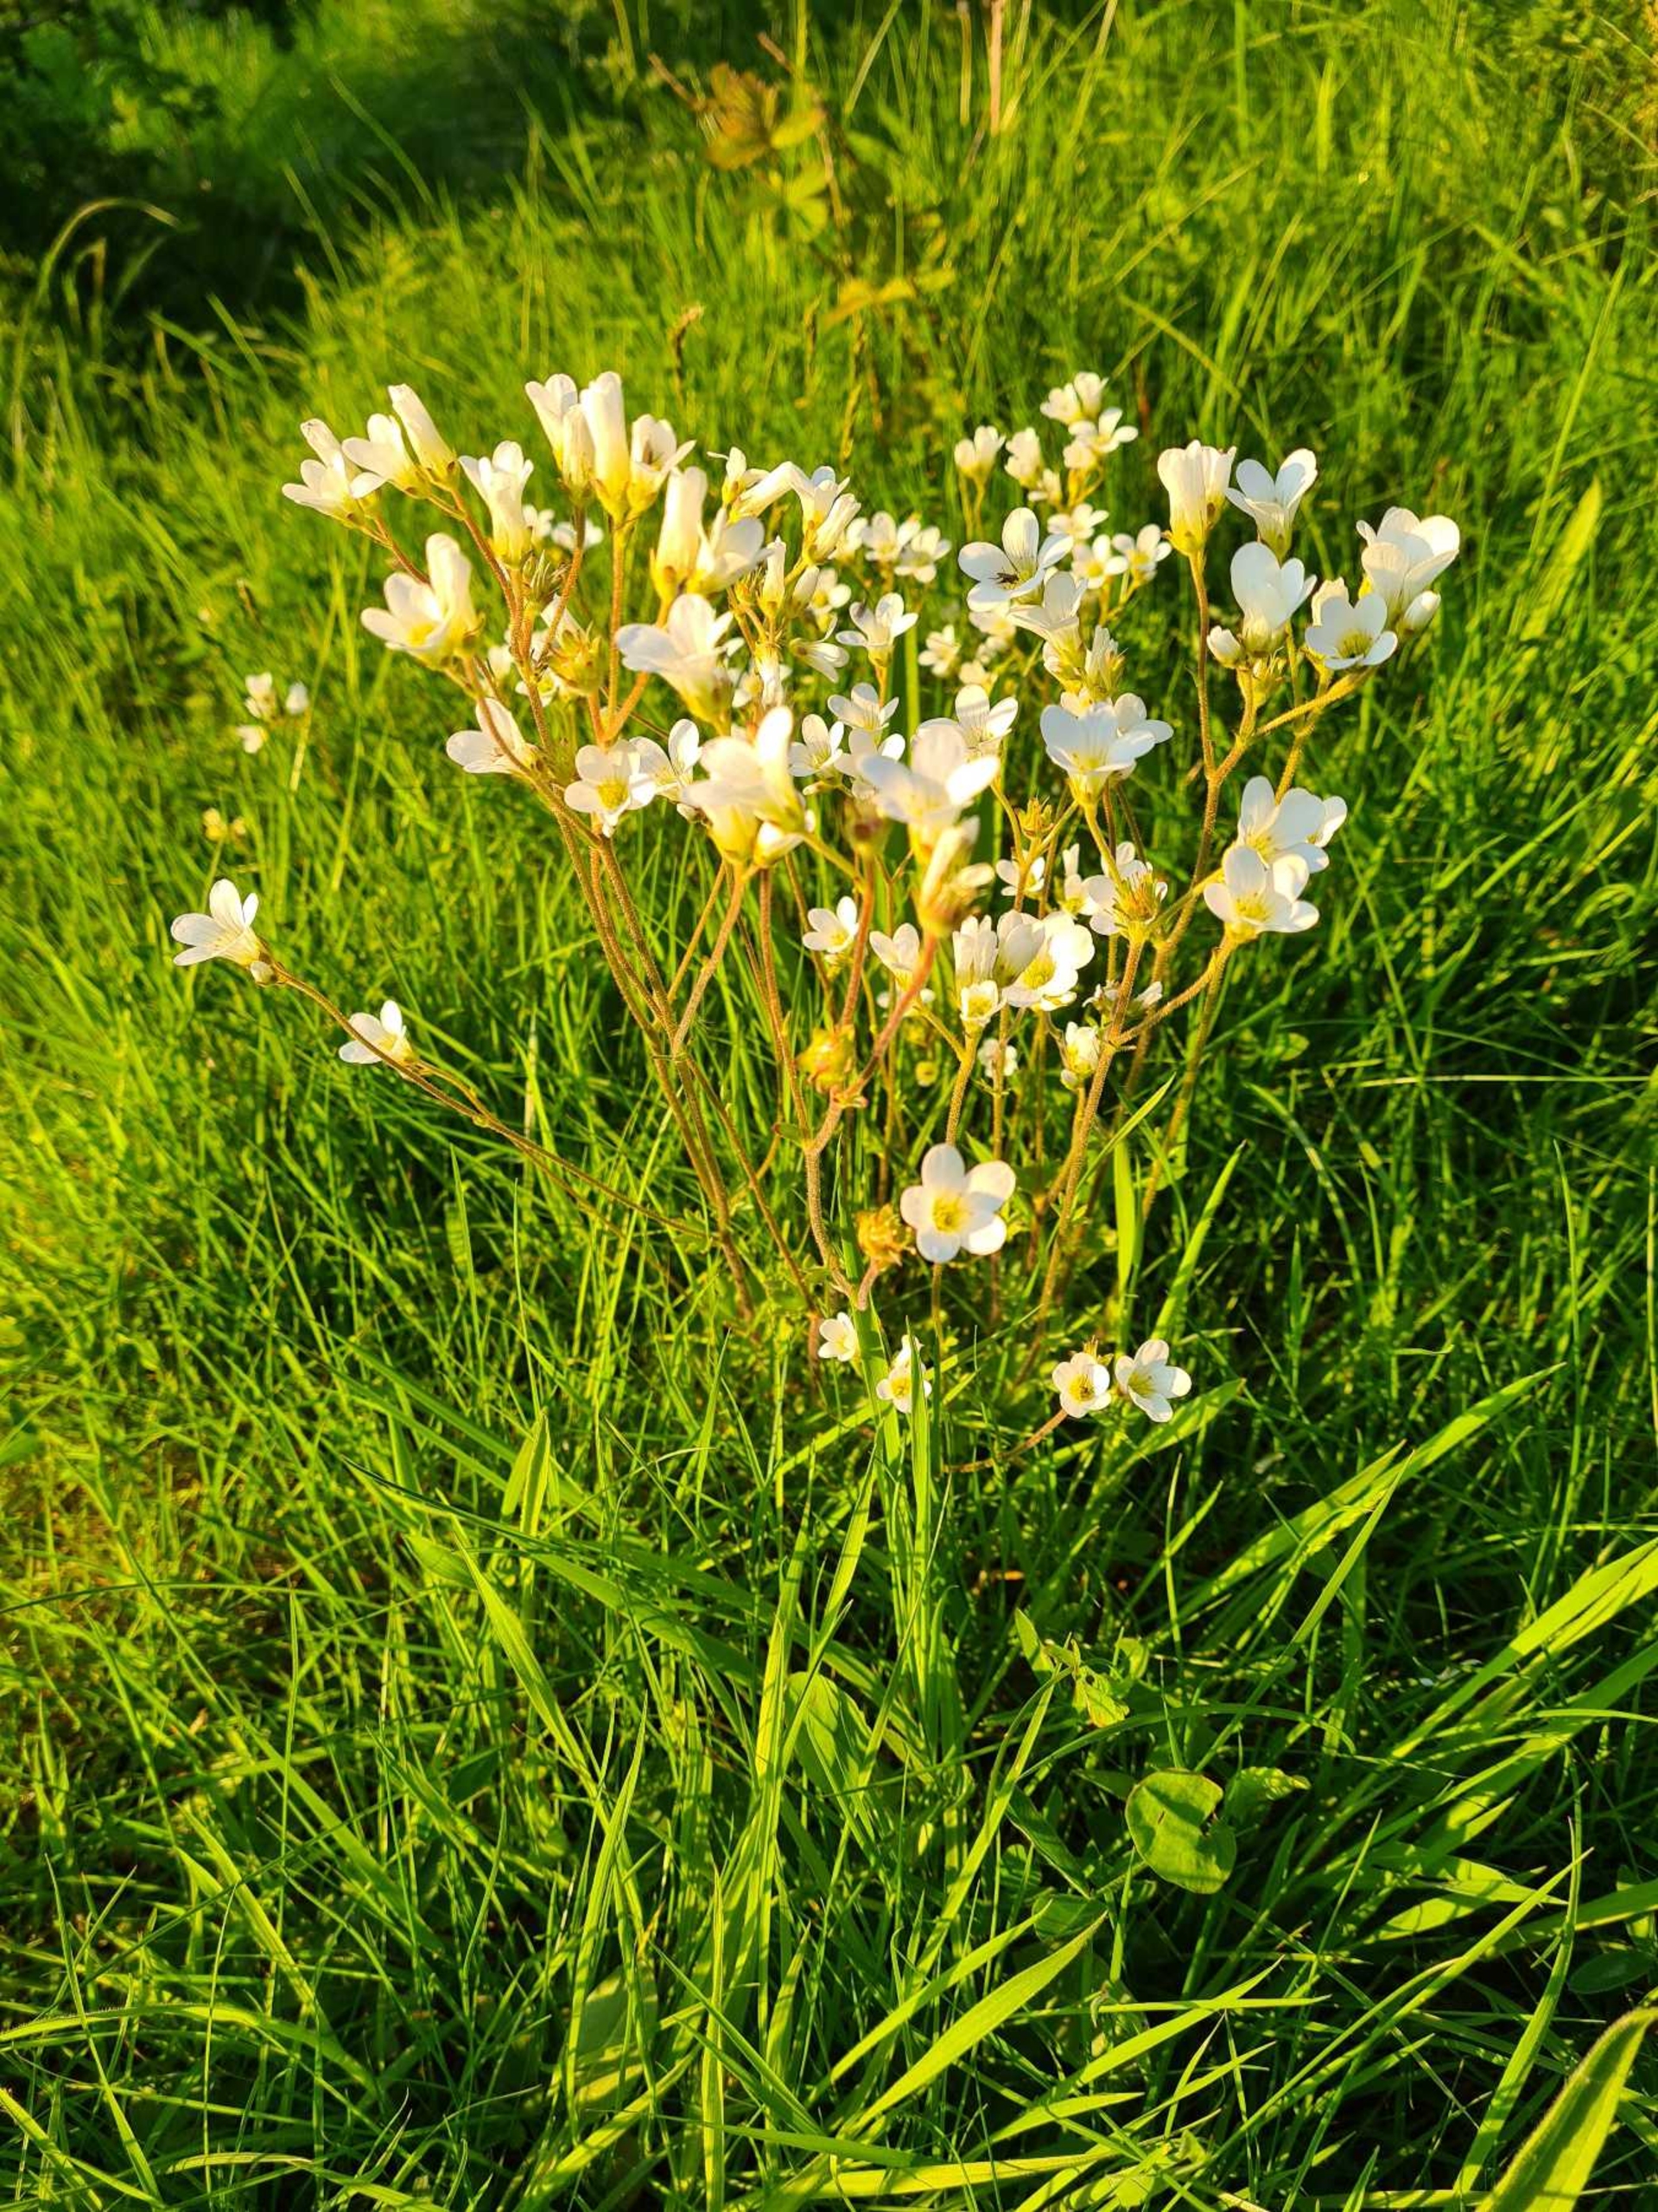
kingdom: Plantae
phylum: Tracheophyta
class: Magnoliopsida
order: Saxifragales
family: Saxifragaceae
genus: Saxifraga
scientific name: Saxifraga granulata
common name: Kornet stenbræk
